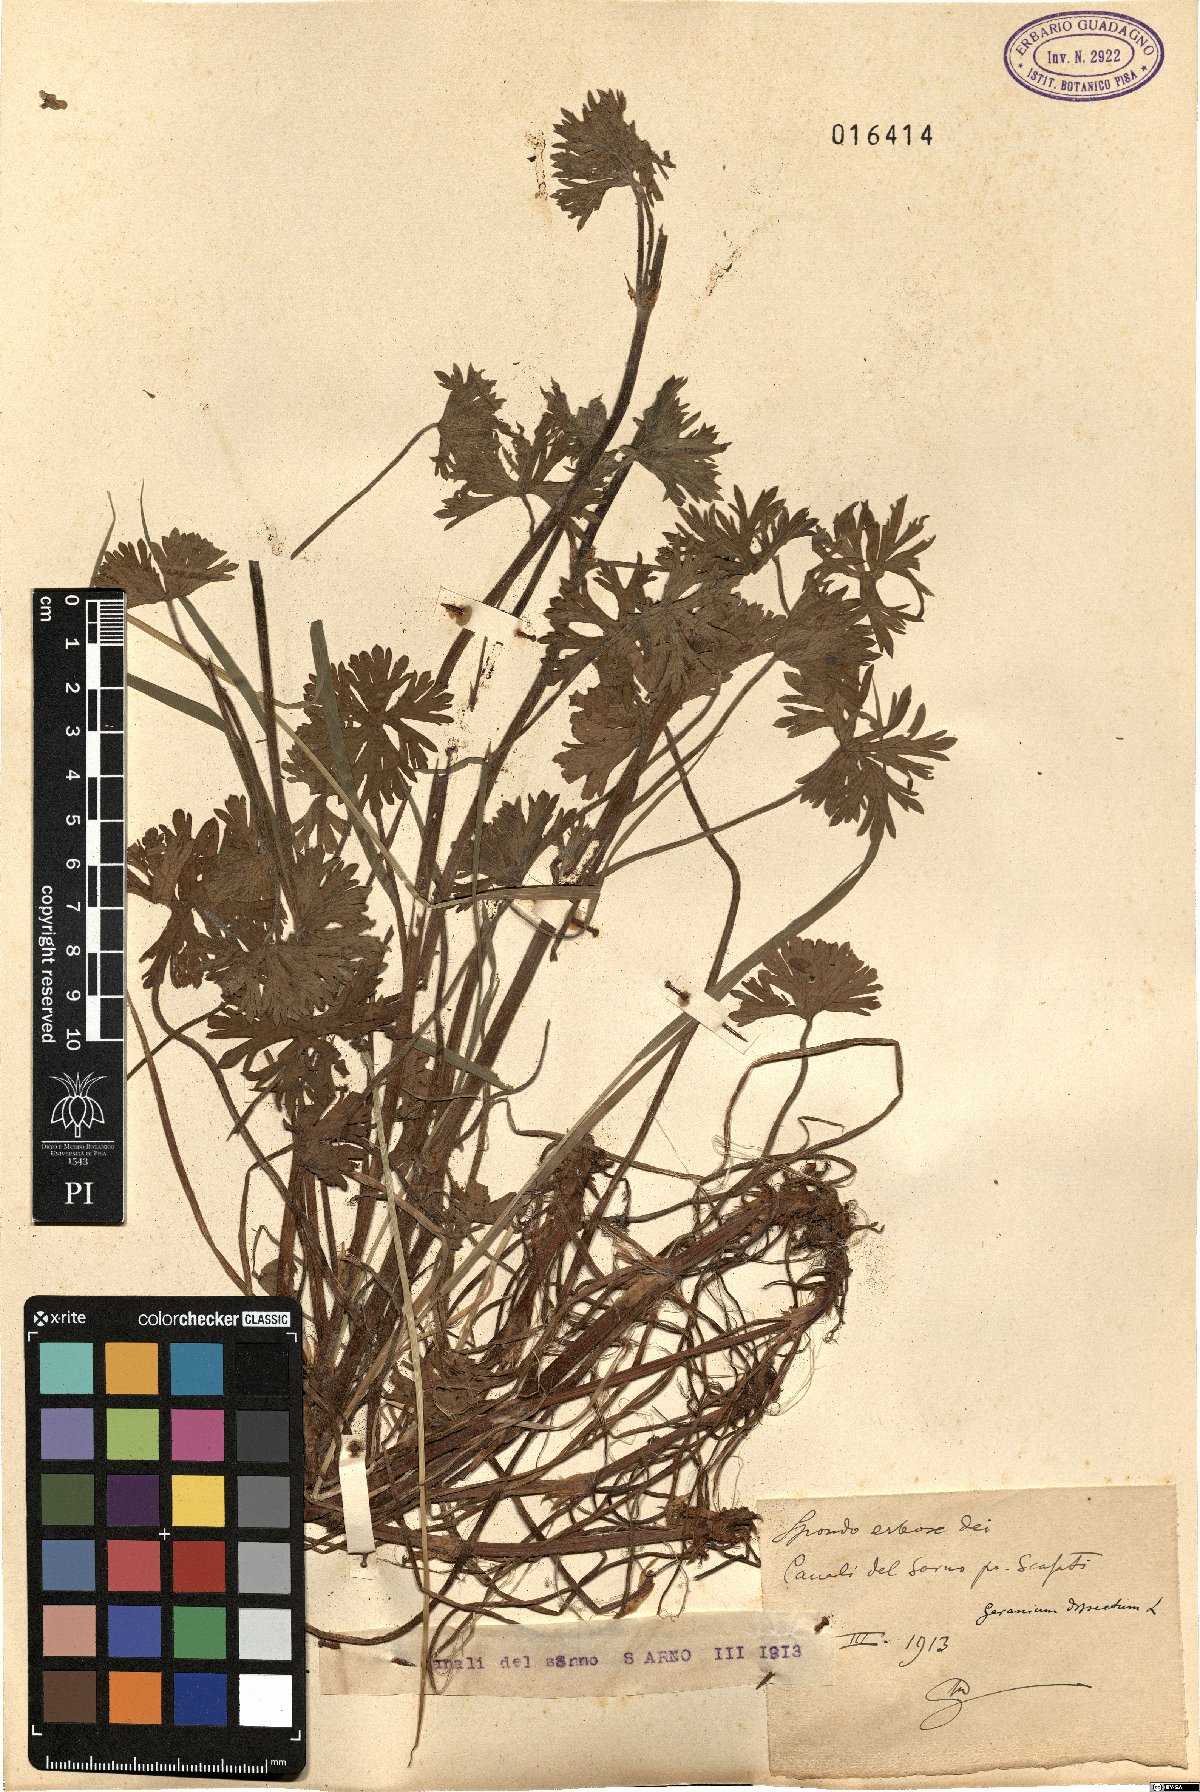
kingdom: Plantae
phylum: Tracheophyta
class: Magnoliopsida
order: Geraniales
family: Geraniaceae
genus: Geranium
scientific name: Geranium dissectum
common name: Cut-leaved crane's-bill
